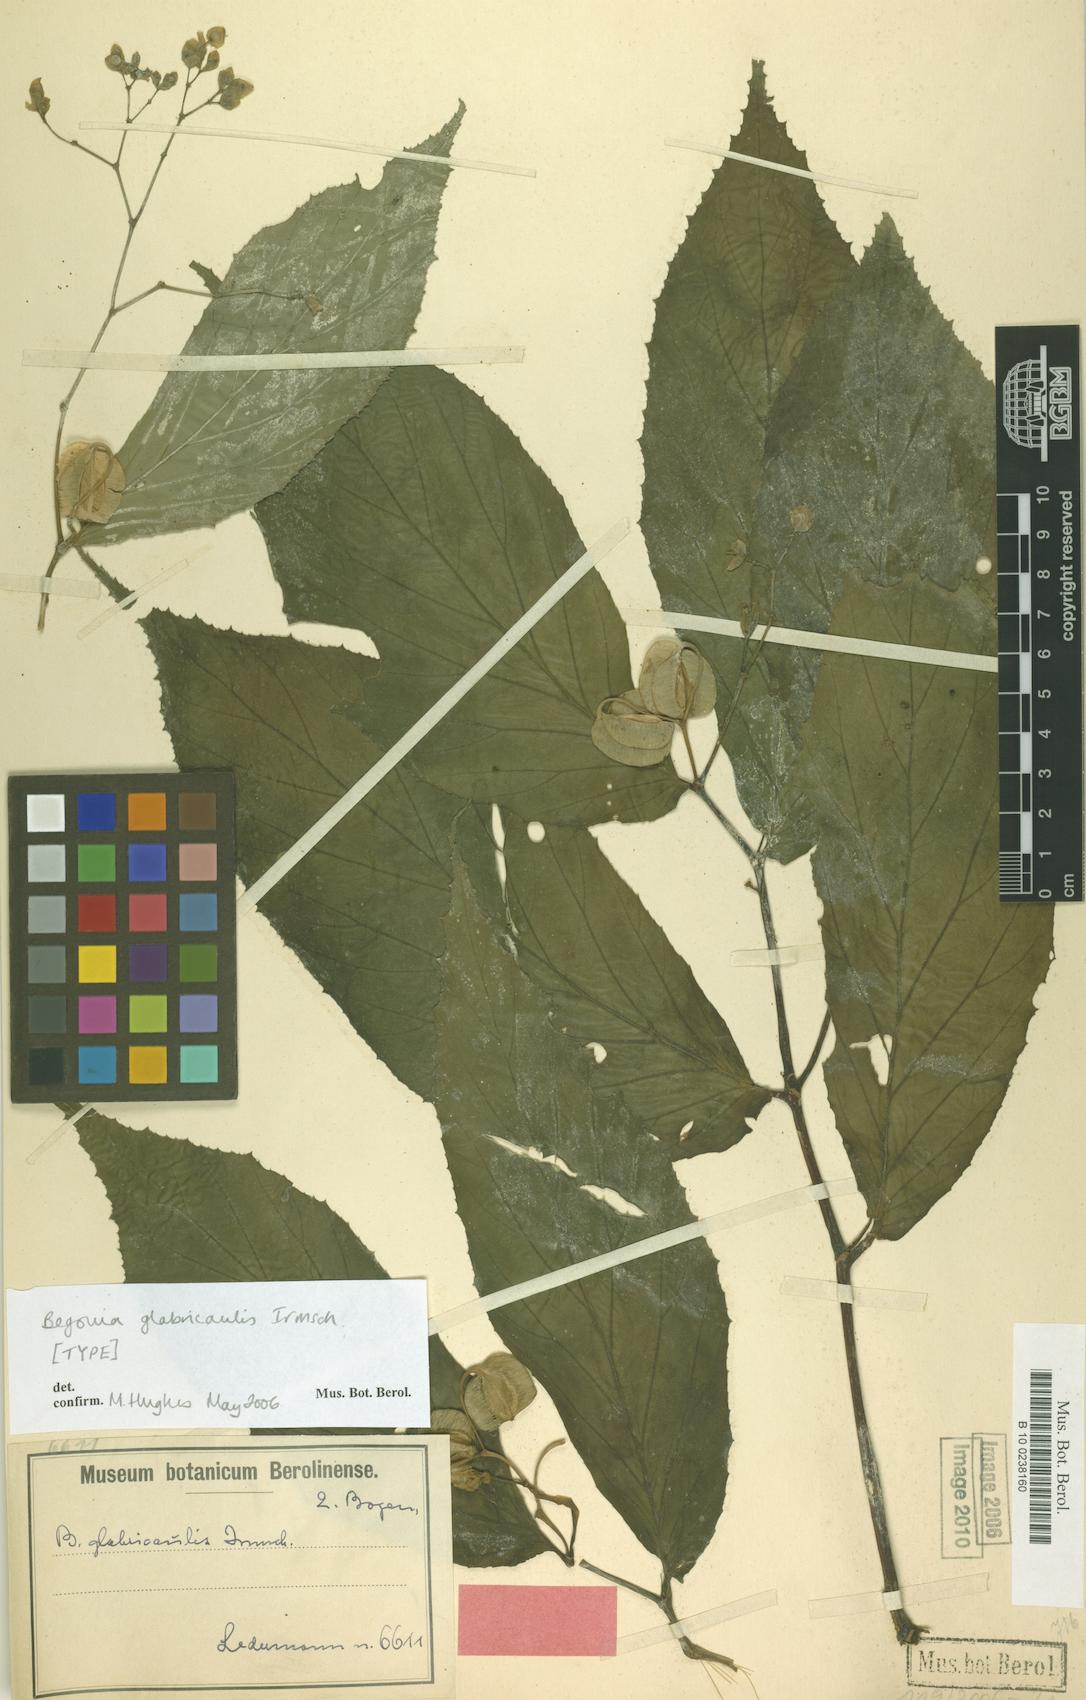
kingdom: Plantae
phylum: Tracheophyta
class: Magnoliopsida
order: Cucurbitales
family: Begoniaceae
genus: Begonia
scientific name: Begonia glabricaulis
